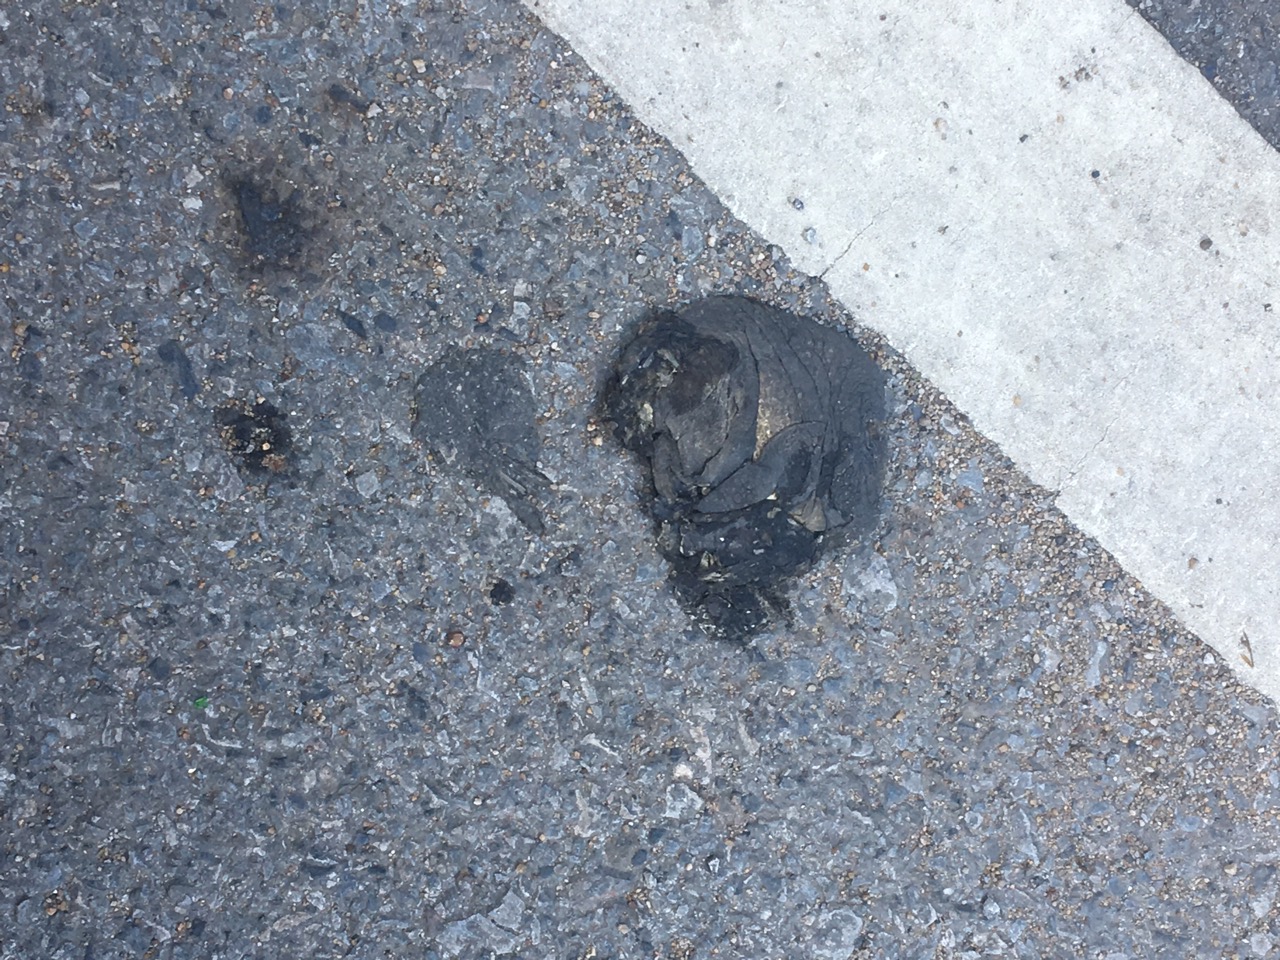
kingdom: Animalia
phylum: Chordata
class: Amphibia
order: Anura
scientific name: Anura
